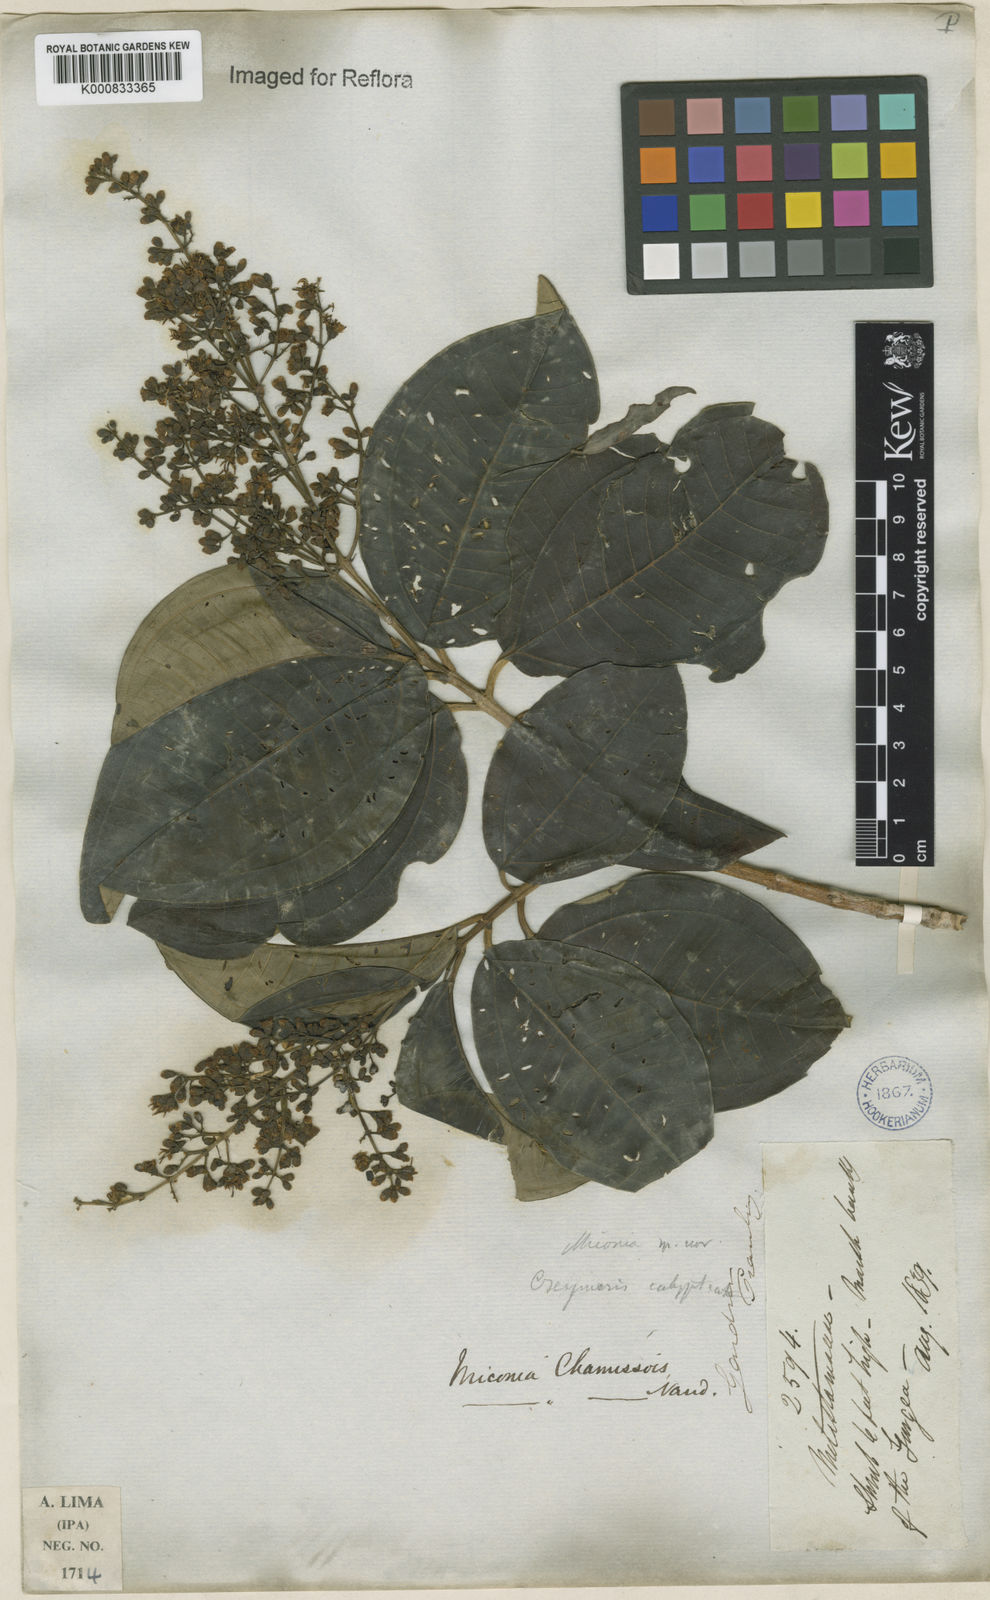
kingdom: Plantae
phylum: Tracheophyta
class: Magnoliopsida
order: Myrtales
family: Melastomataceae
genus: Miconia
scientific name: Miconia chamissois
